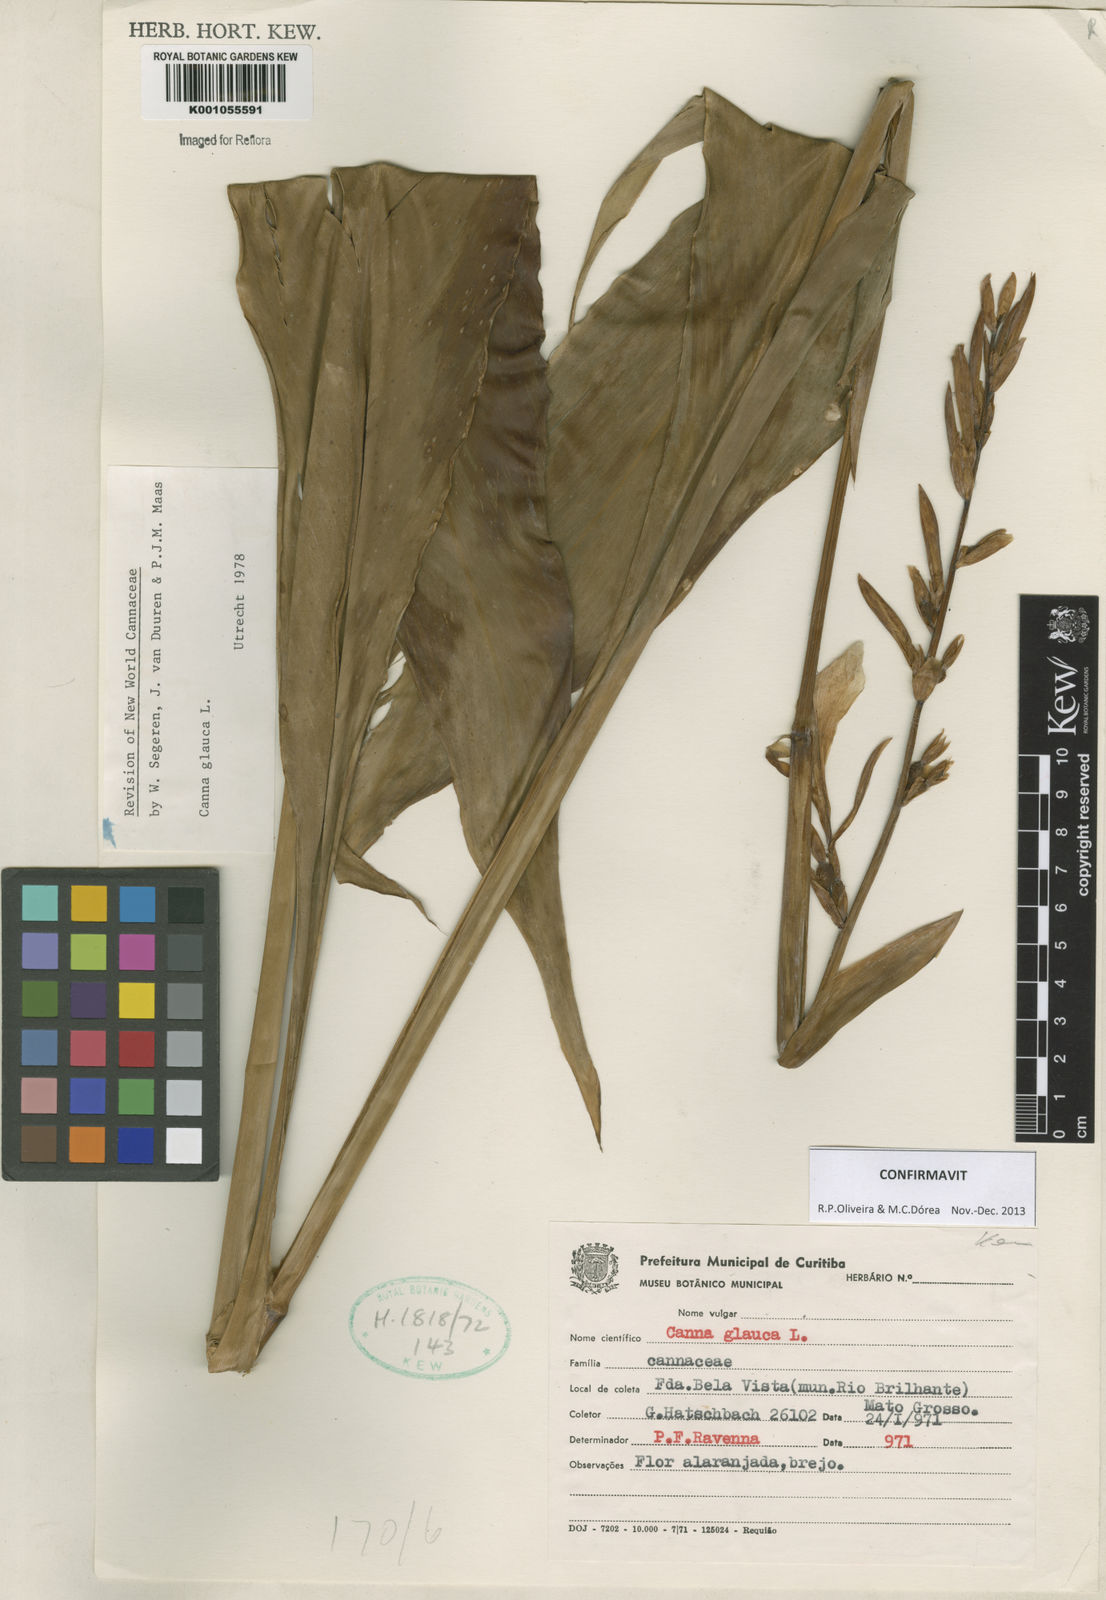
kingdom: Plantae
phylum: Tracheophyta
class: Liliopsida
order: Zingiberales
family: Cannaceae
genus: Canna
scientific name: Canna glauca
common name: Louisiana canna
